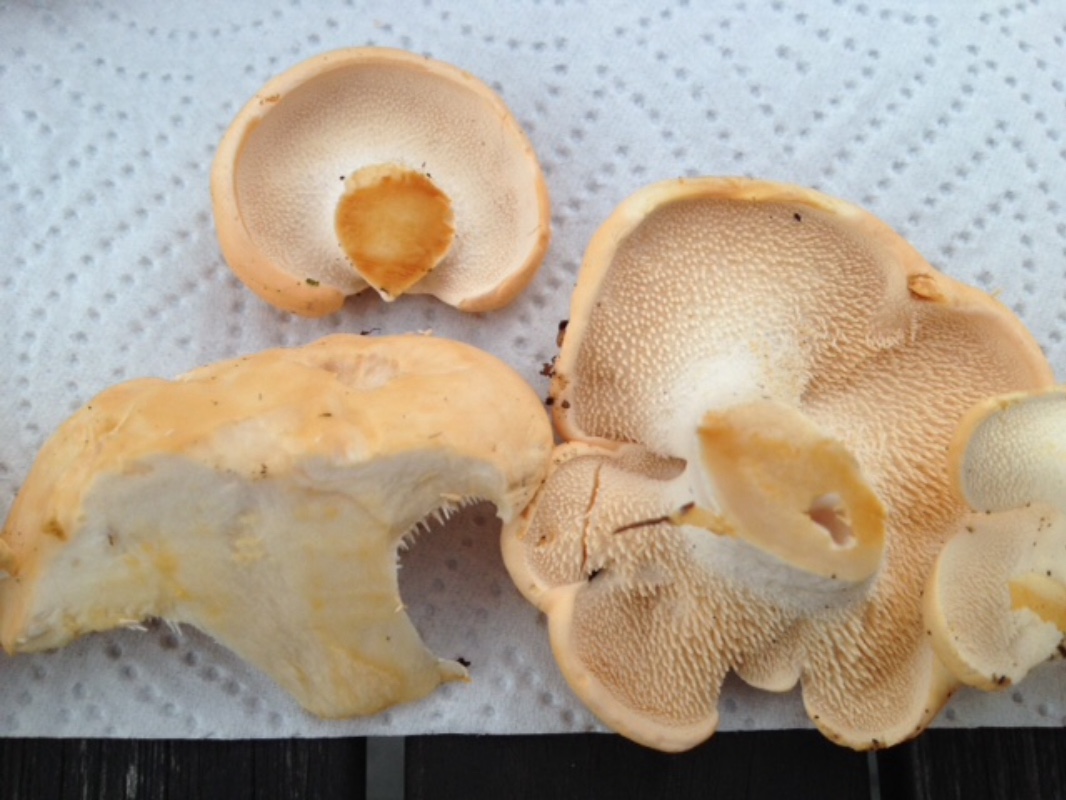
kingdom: Fungi
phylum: Basidiomycota
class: Agaricomycetes
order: Cantharellales
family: Hydnaceae
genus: Hydnum
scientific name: Hydnum repandum
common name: almindelig pigsvamp
